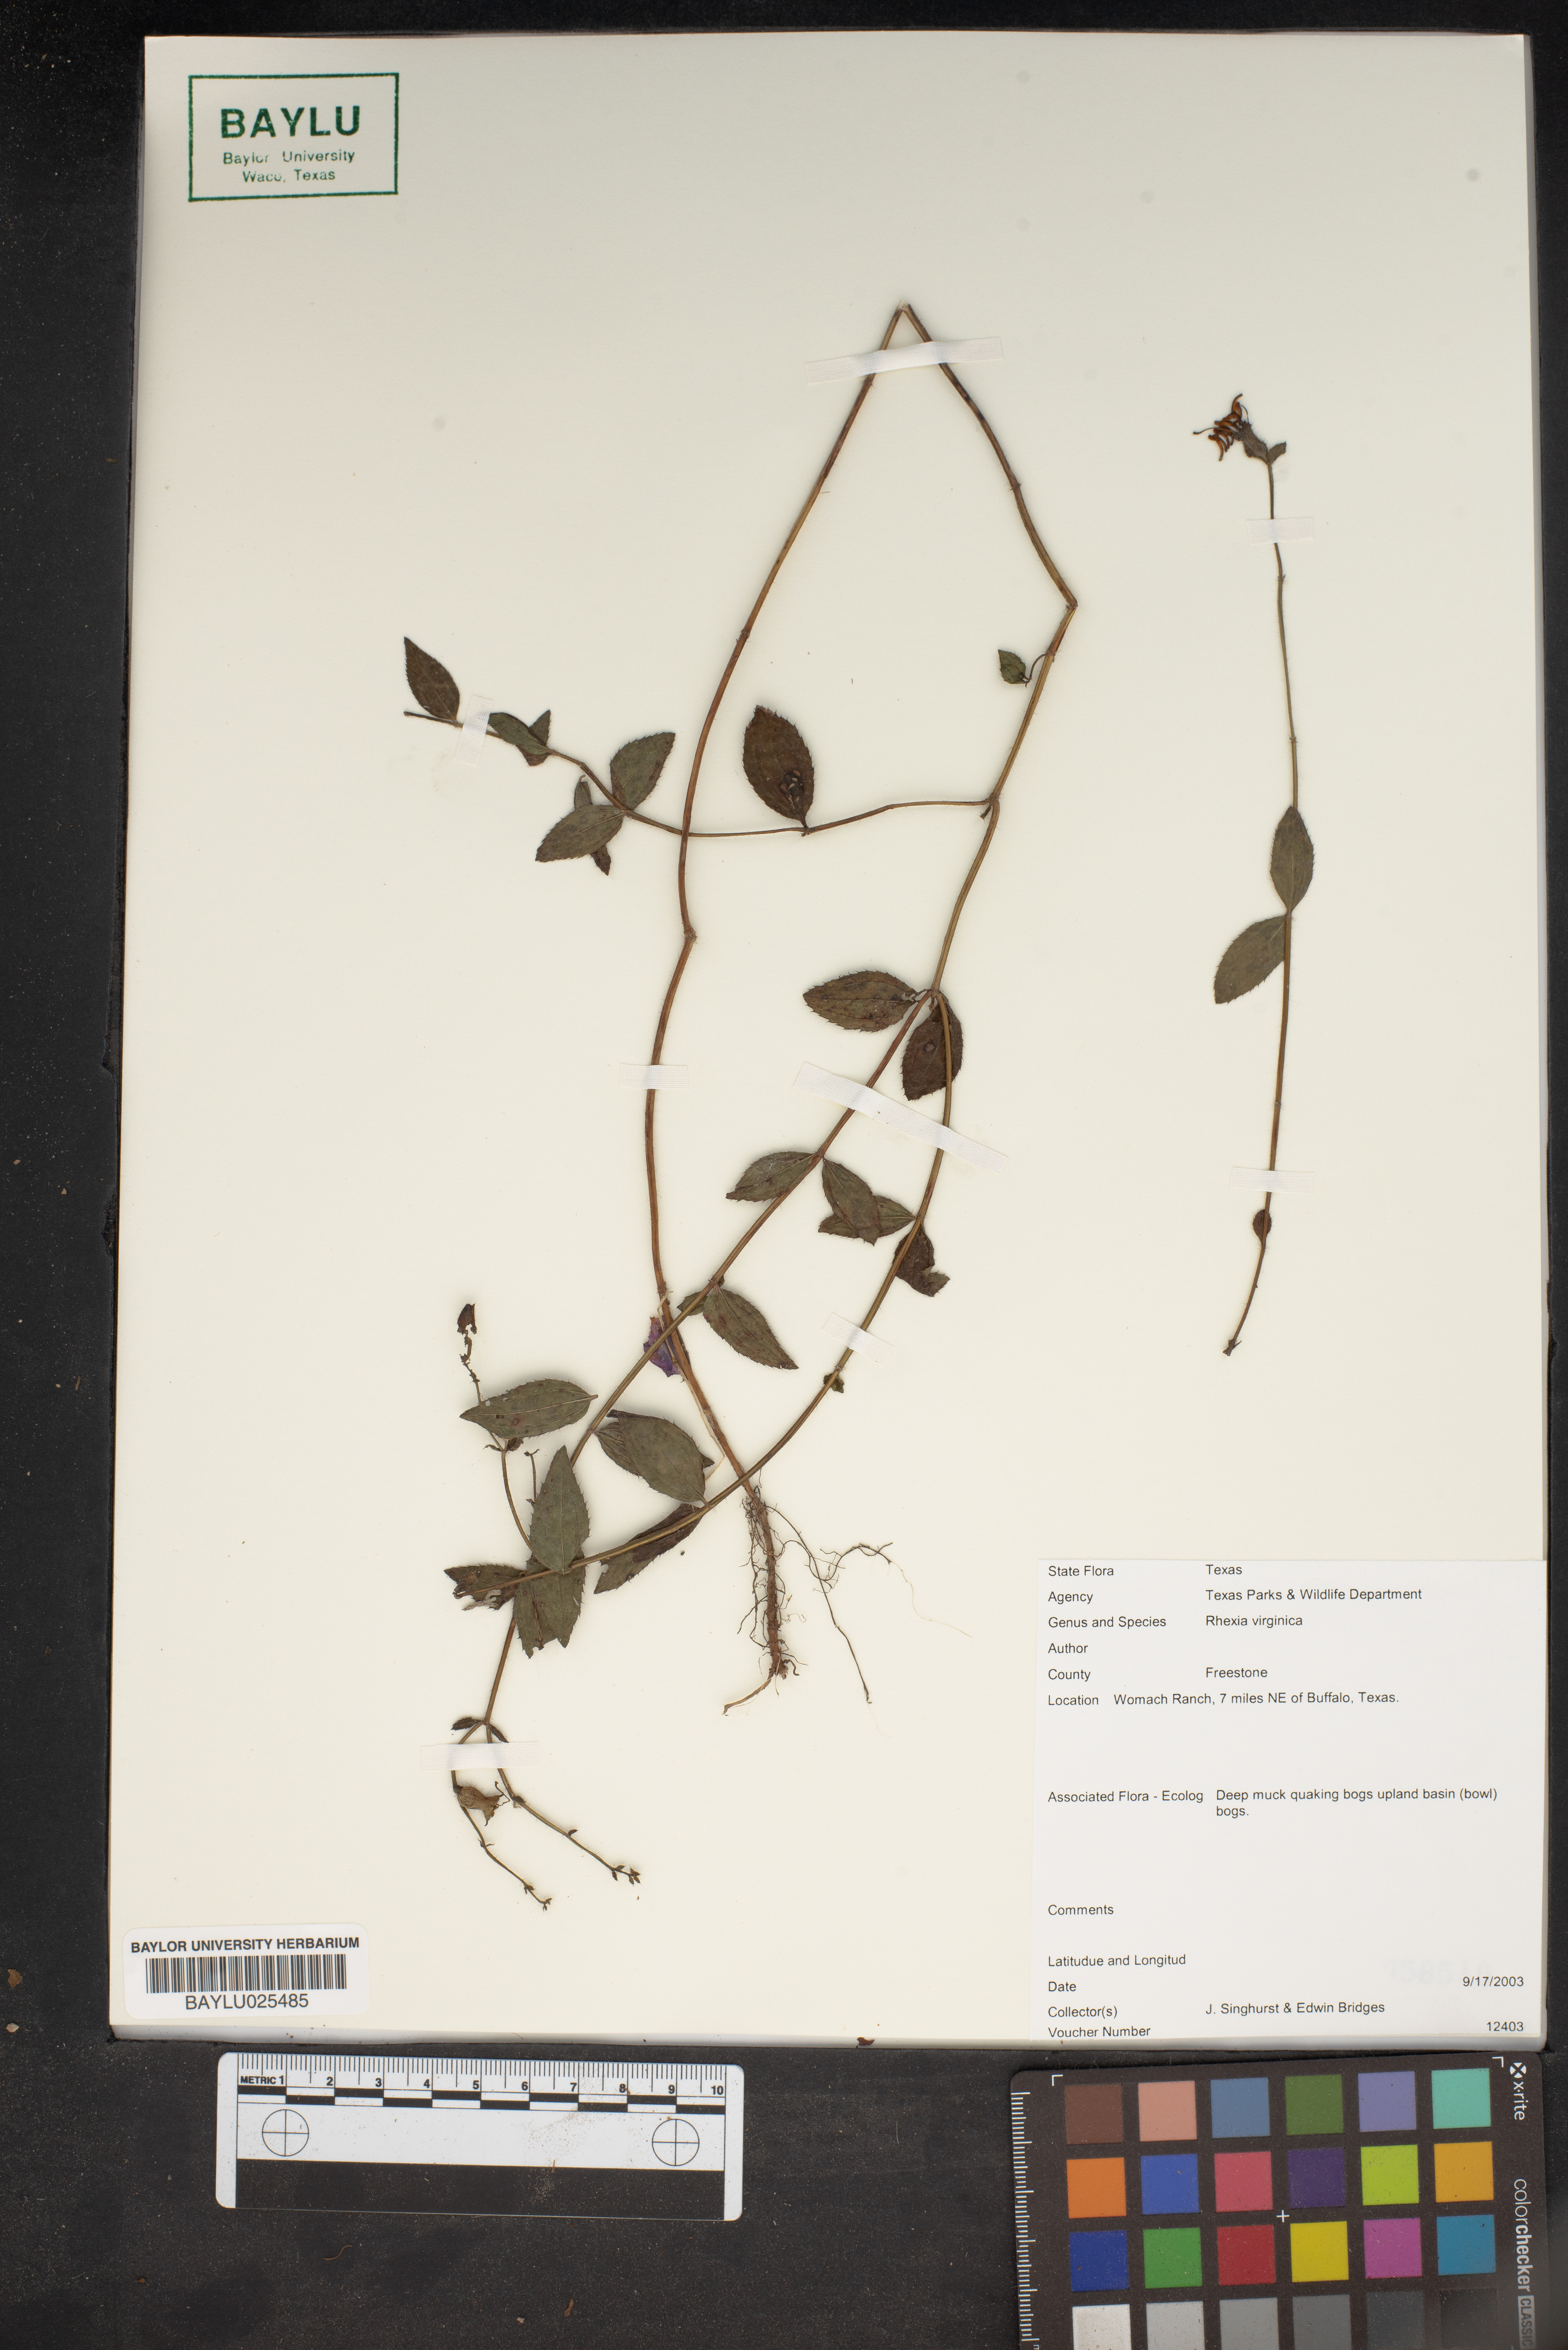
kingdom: Plantae
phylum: Tracheophyta
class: Magnoliopsida
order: Myrtales
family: Melastomataceae
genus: Rhexia
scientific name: Rhexia virginica
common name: Common meadow beauty
